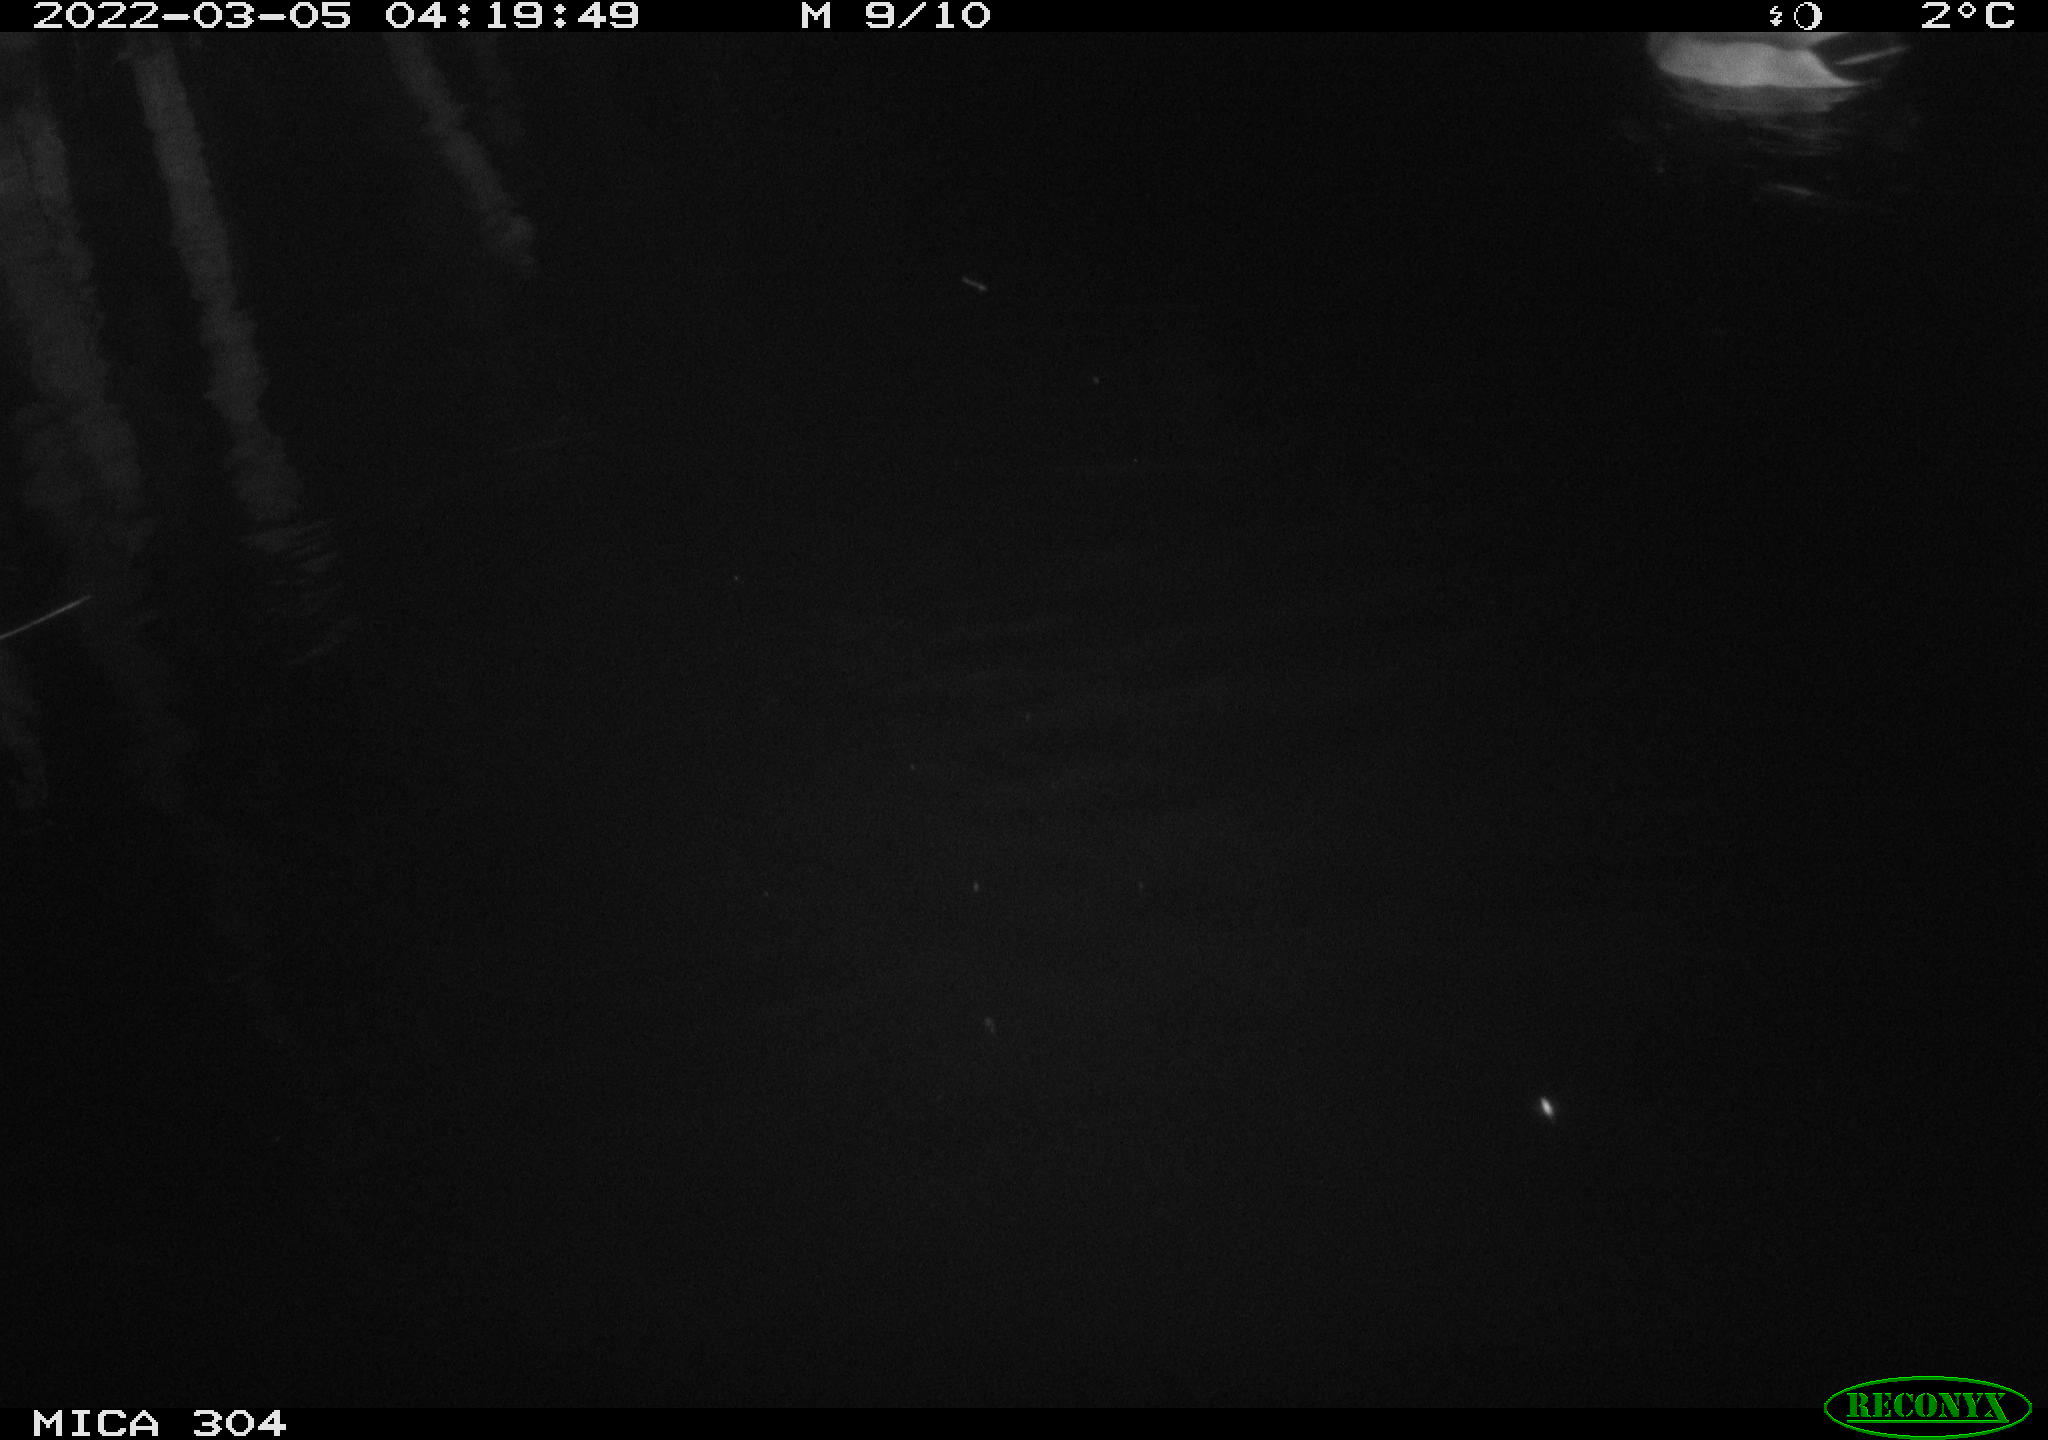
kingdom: Animalia
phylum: Chordata
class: Aves
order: Anseriformes
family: Anatidae
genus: Anas
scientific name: Anas platyrhynchos
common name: Mallard
